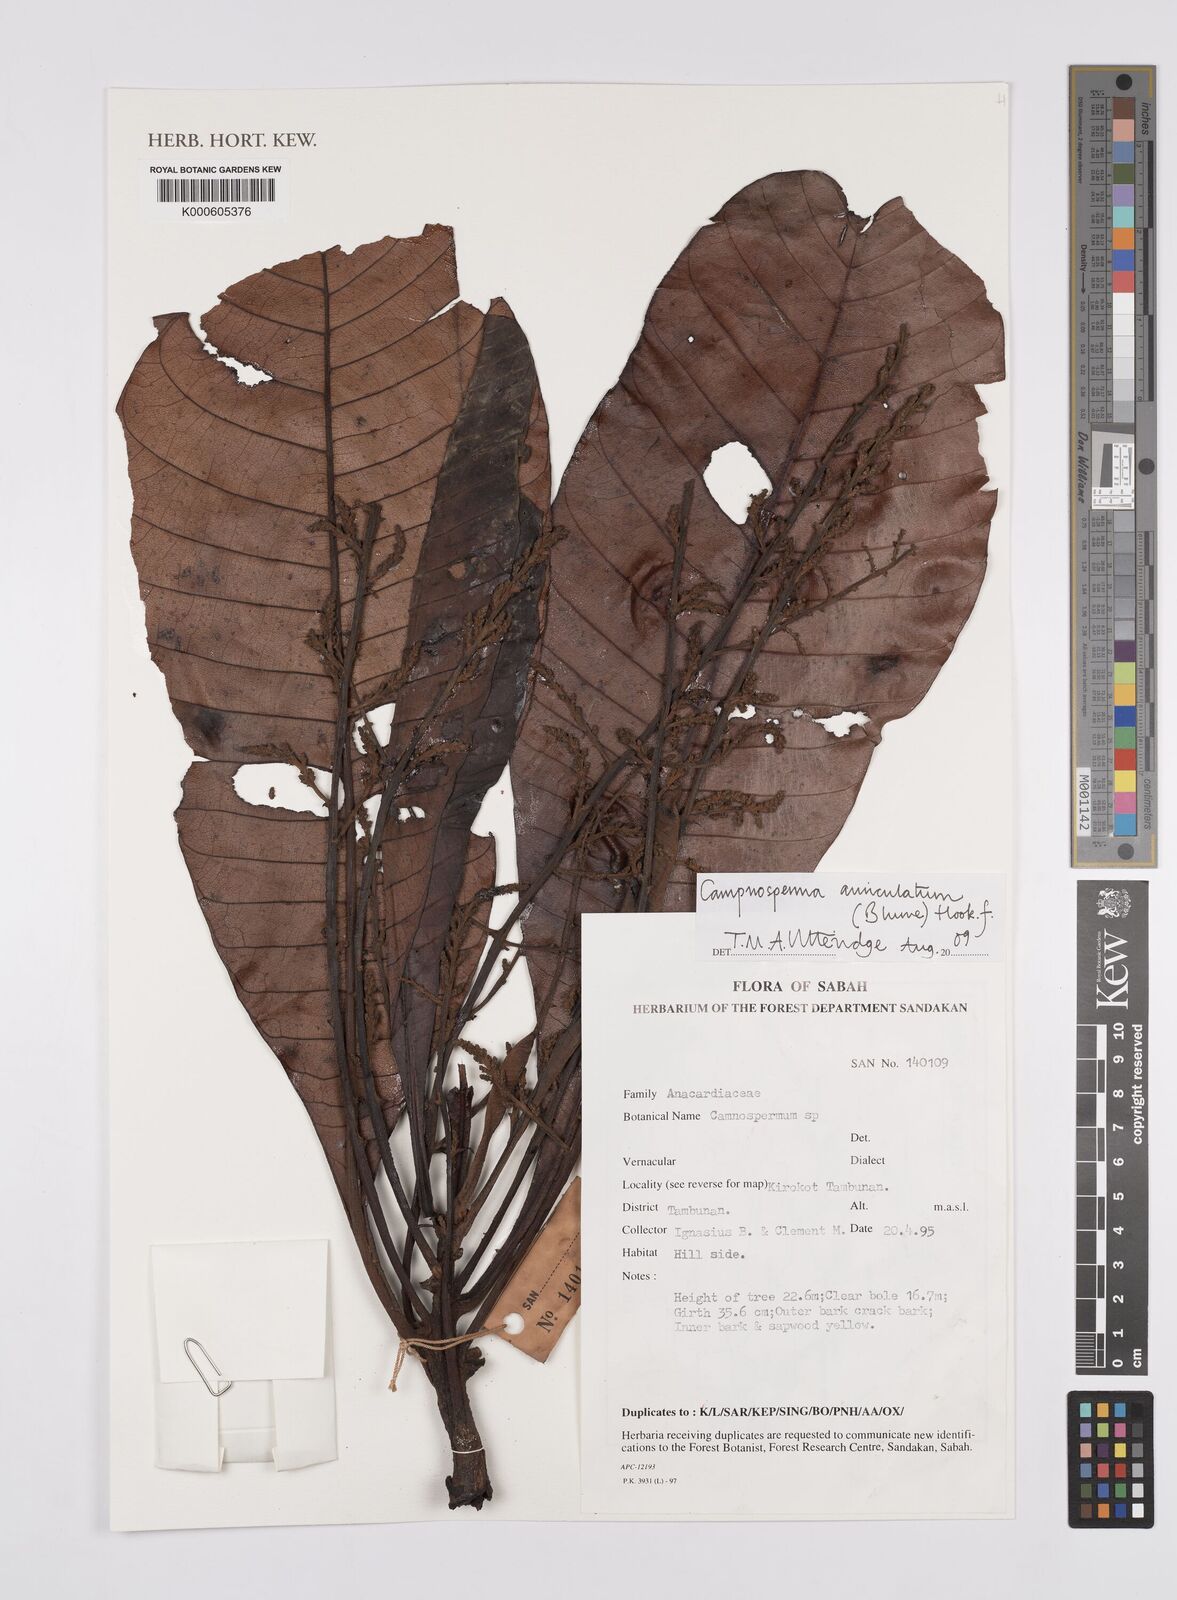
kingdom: Plantae
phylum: Tracheophyta
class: Magnoliopsida
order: Sapindales
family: Anacardiaceae
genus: Campnosperma
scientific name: Campnosperma auriculatum
